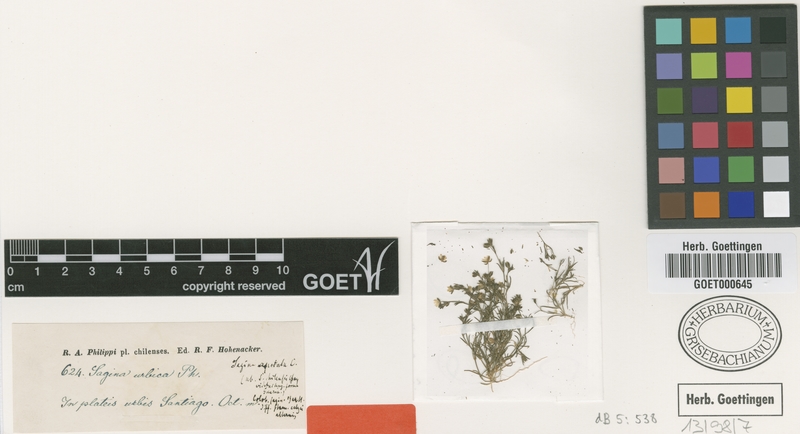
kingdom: Plantae
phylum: Tracheophyta
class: Magnoliopsida
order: Caryophyllales
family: Caryophyllaceae
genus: Sagina
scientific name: Sagina apetala
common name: Annual pearlwort
